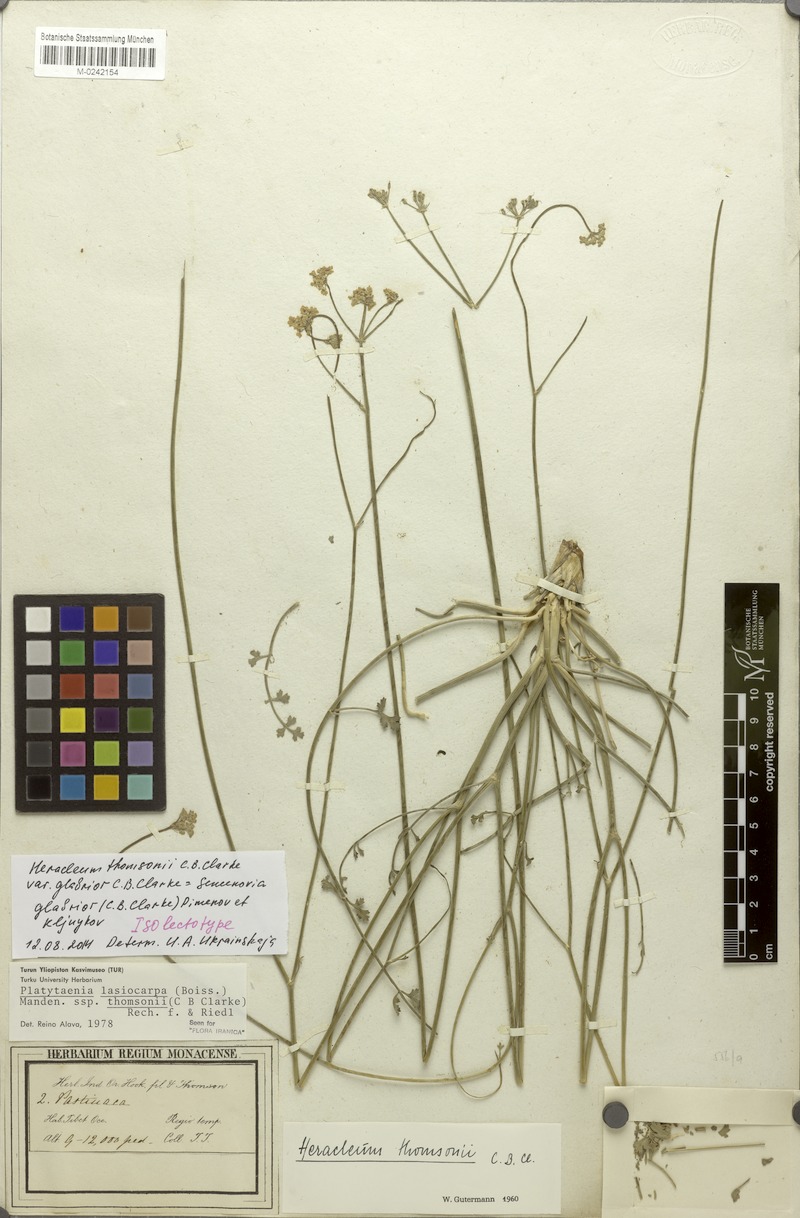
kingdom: Plantae
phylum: Tracheophyta
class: Magnoliopsida
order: Apiales
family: Apiaceae
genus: Semenovia
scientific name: Semenovia thomsonii
